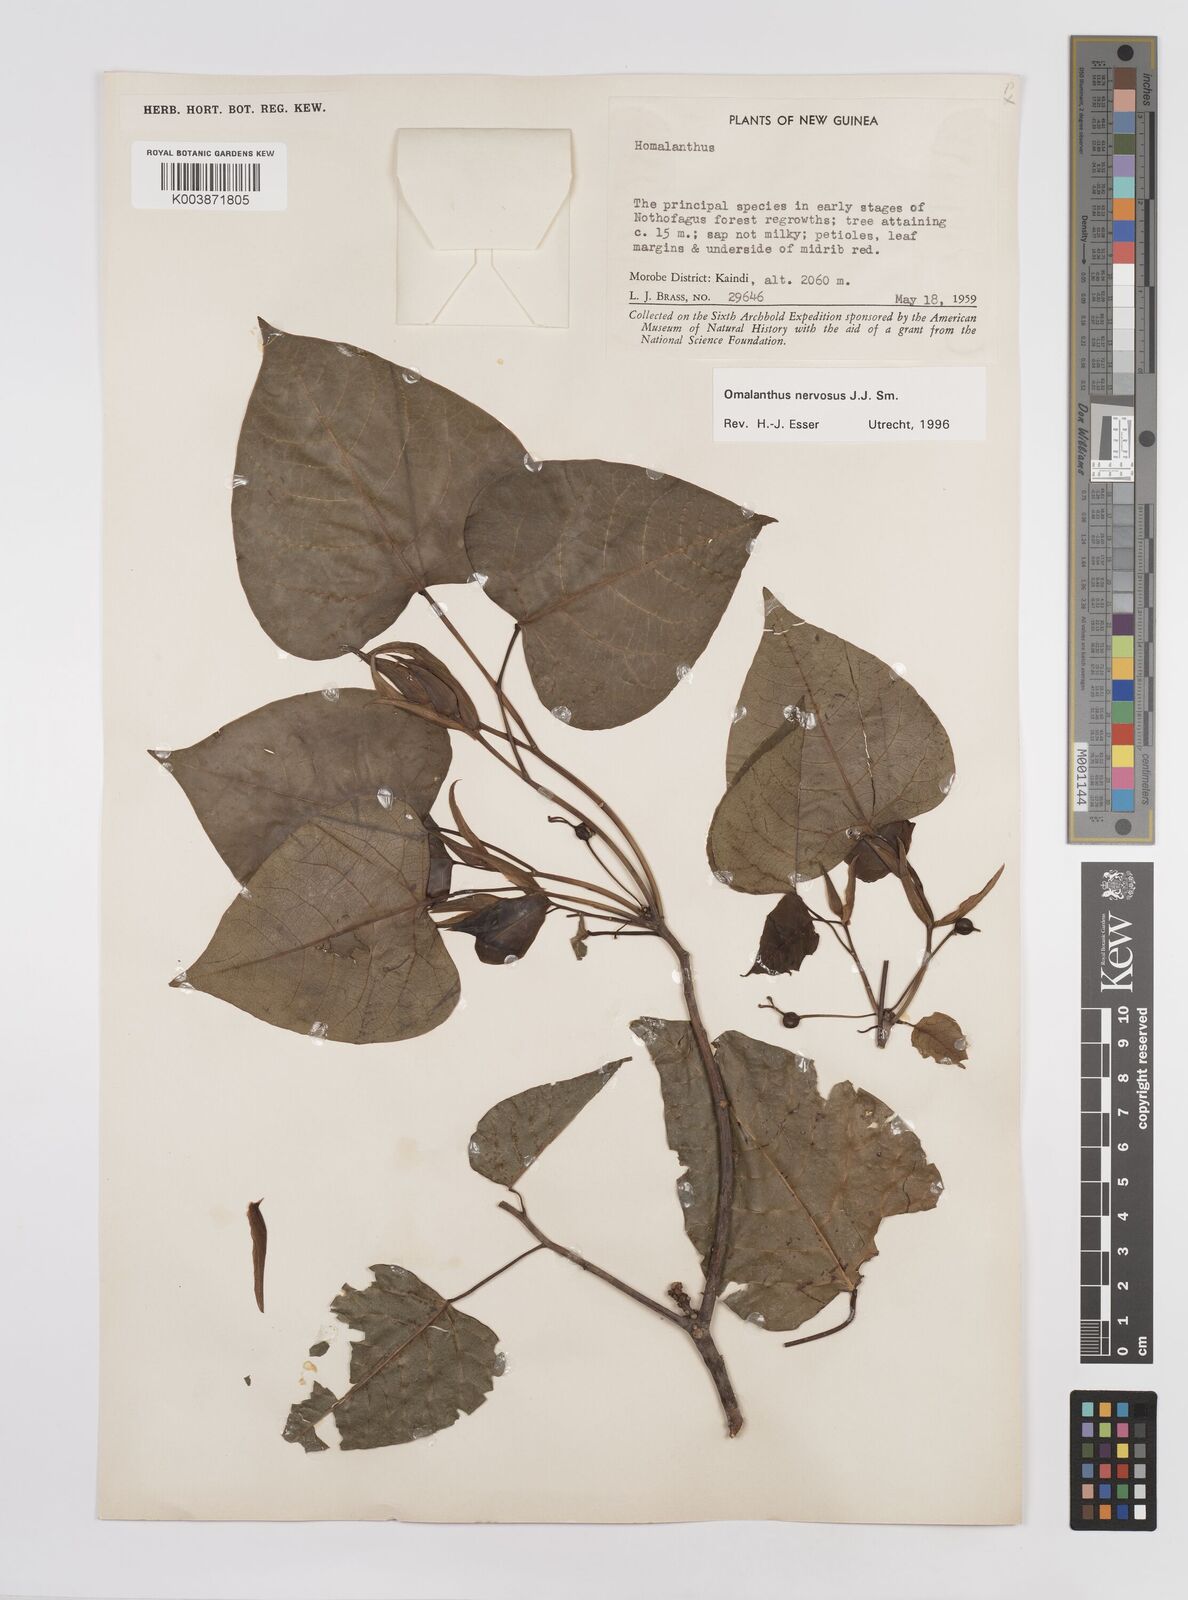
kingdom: Plantae
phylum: Tracheophyta
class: Magnoliopsida
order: Malpighiales
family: Euphorbiaceae
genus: Homalanthus
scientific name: Homalanthus nervosus
